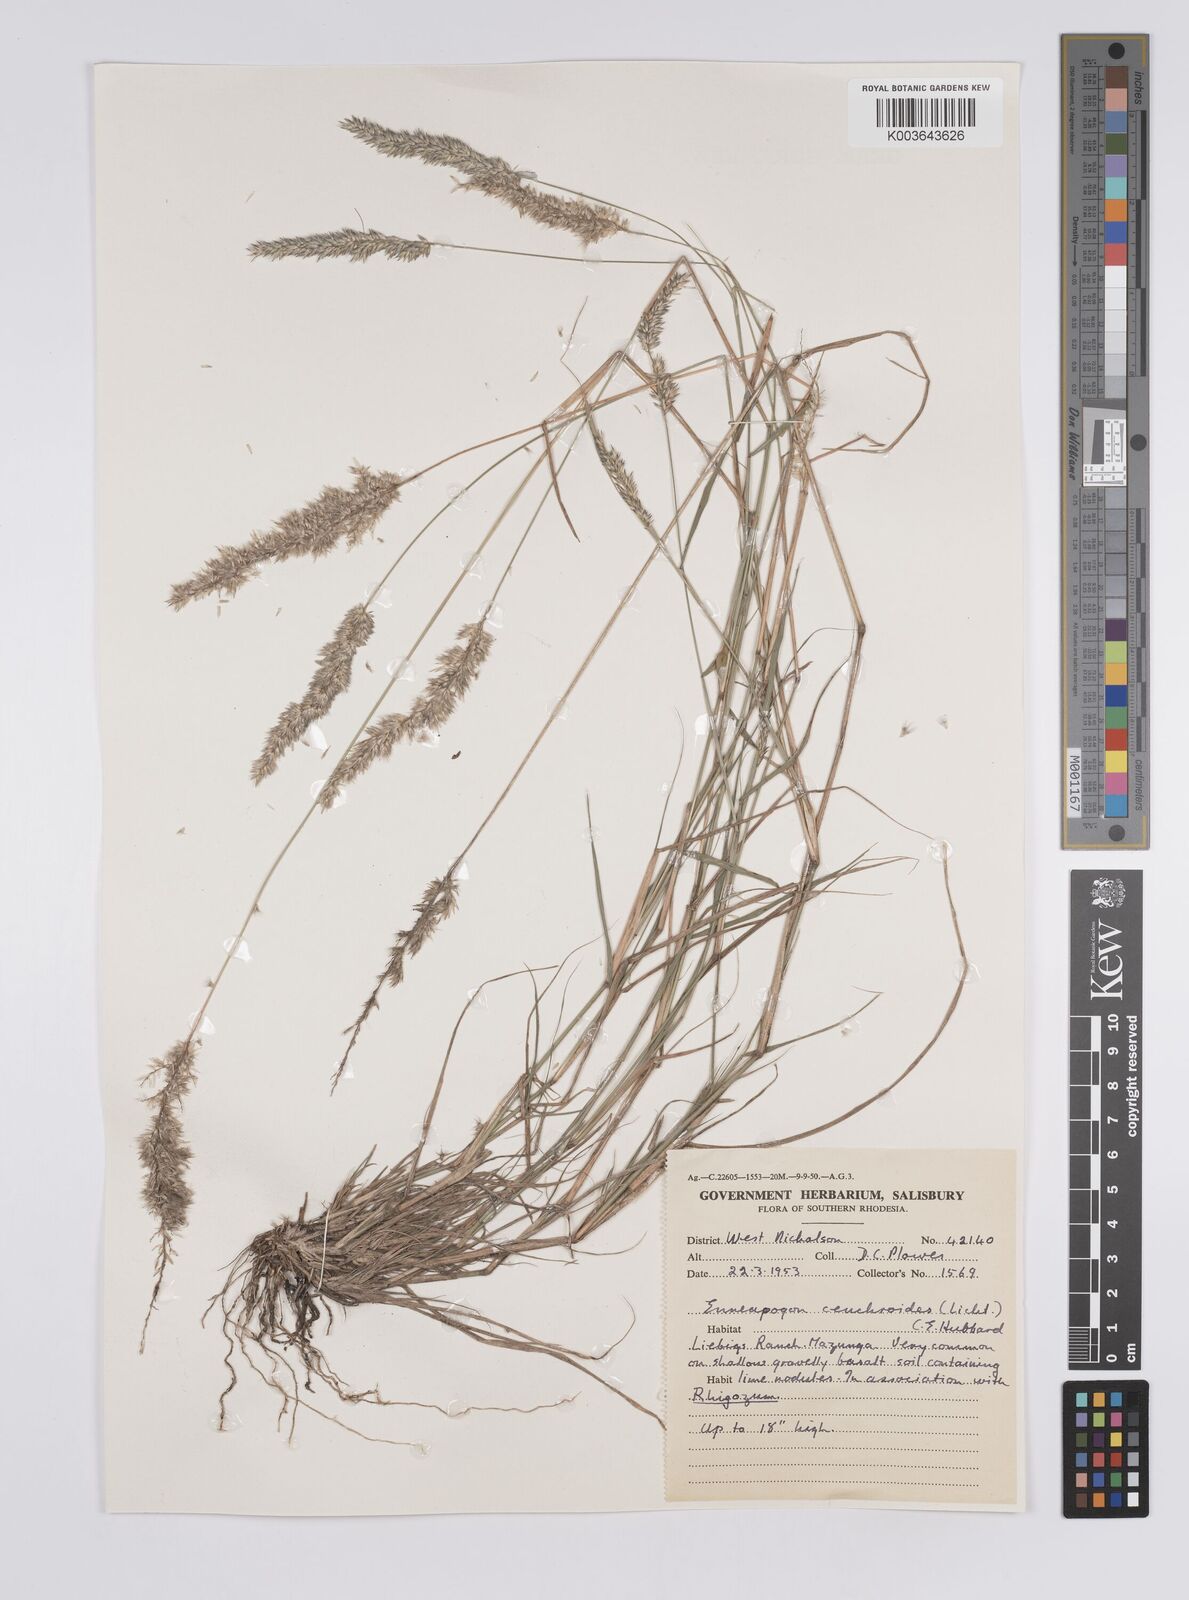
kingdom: Plantae
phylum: Tracheophyta
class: Liliopsida
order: Poales
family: Poaceae
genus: Enneapogon
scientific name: Enneapogon cenchroides
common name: Soft feather pappusgrass
